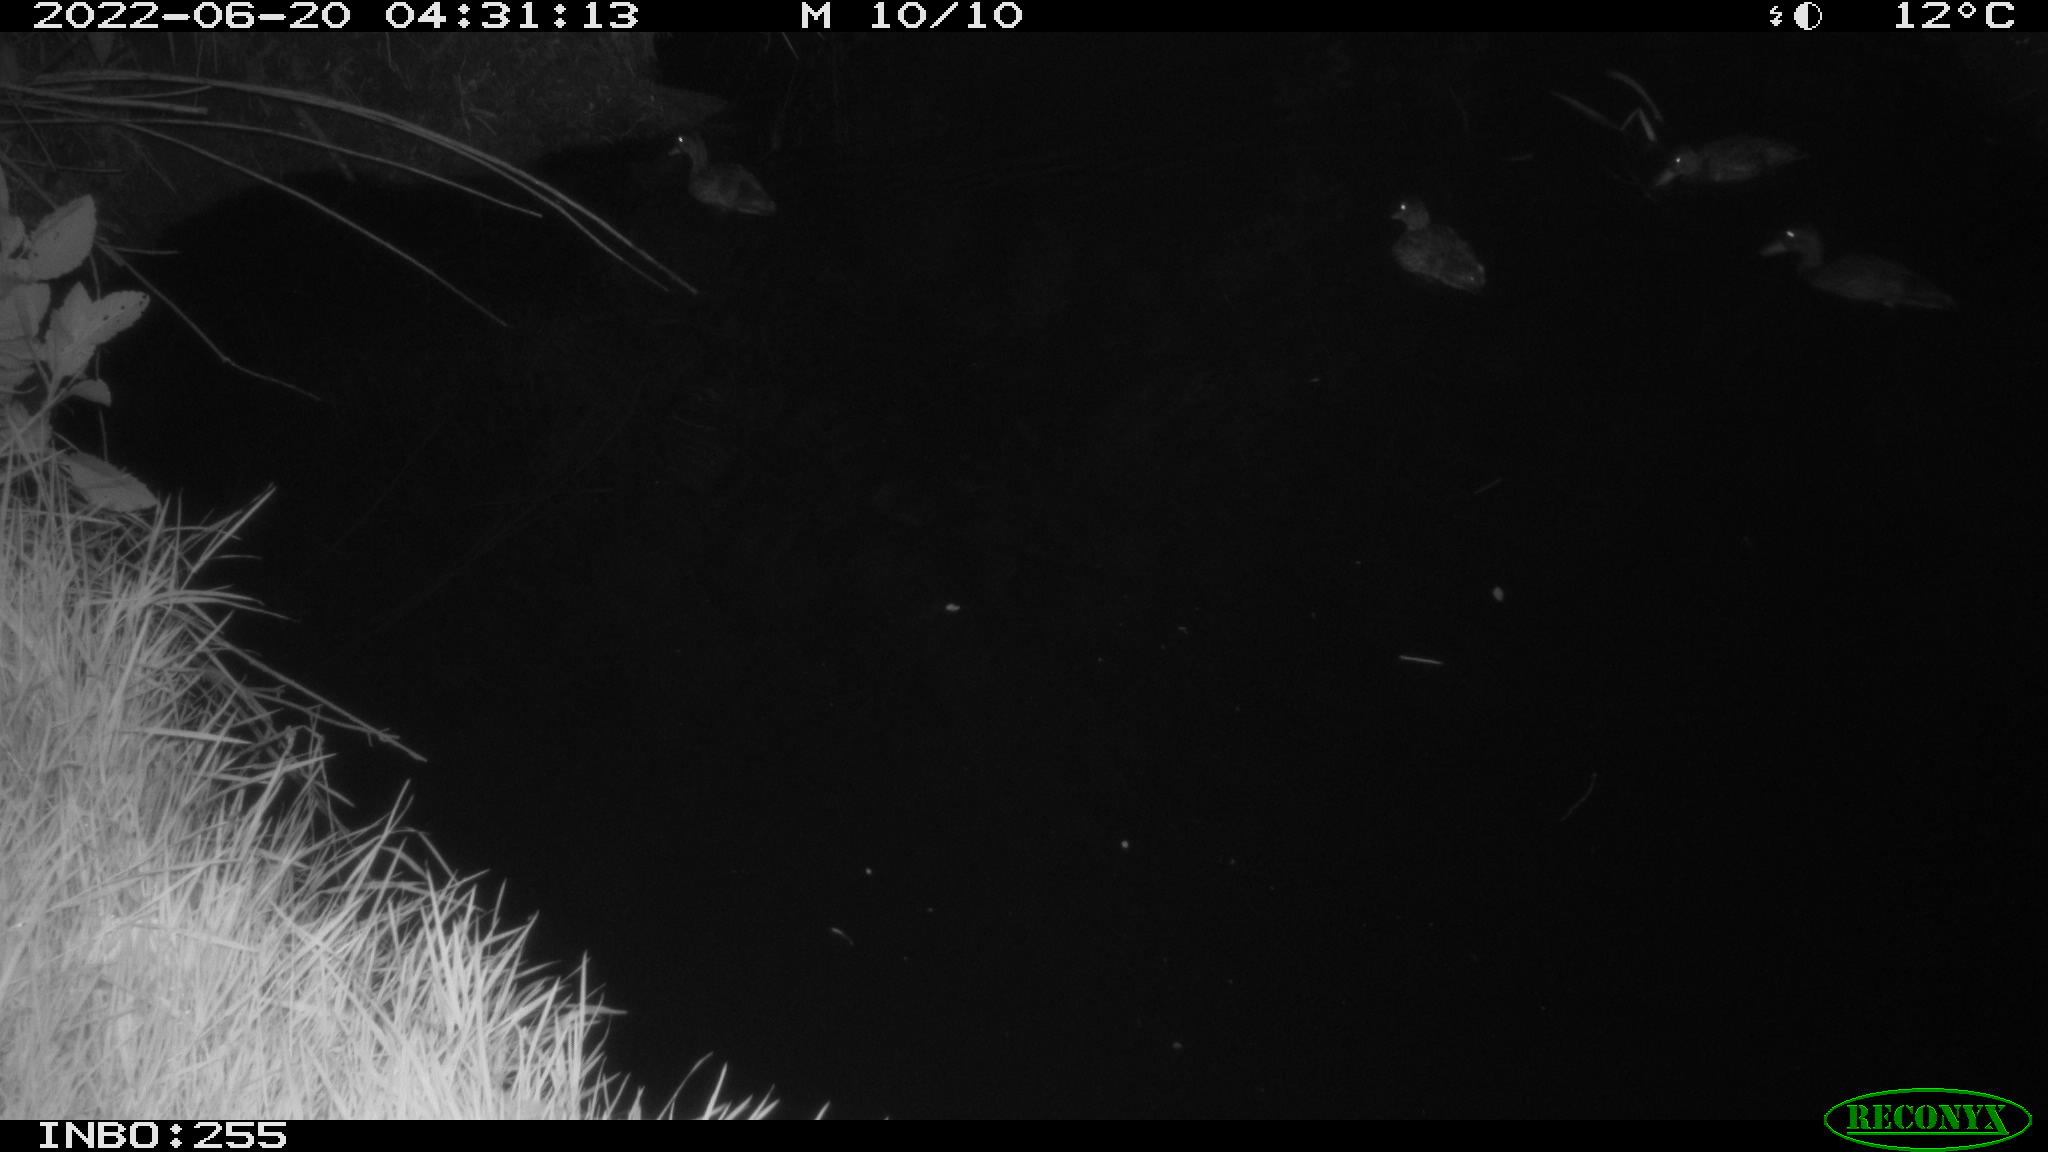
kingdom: Animalia
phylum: Chordata
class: Aves
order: Anseriformes
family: Anatidae
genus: Anas
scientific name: Anas platyrhynchos
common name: Mallard
